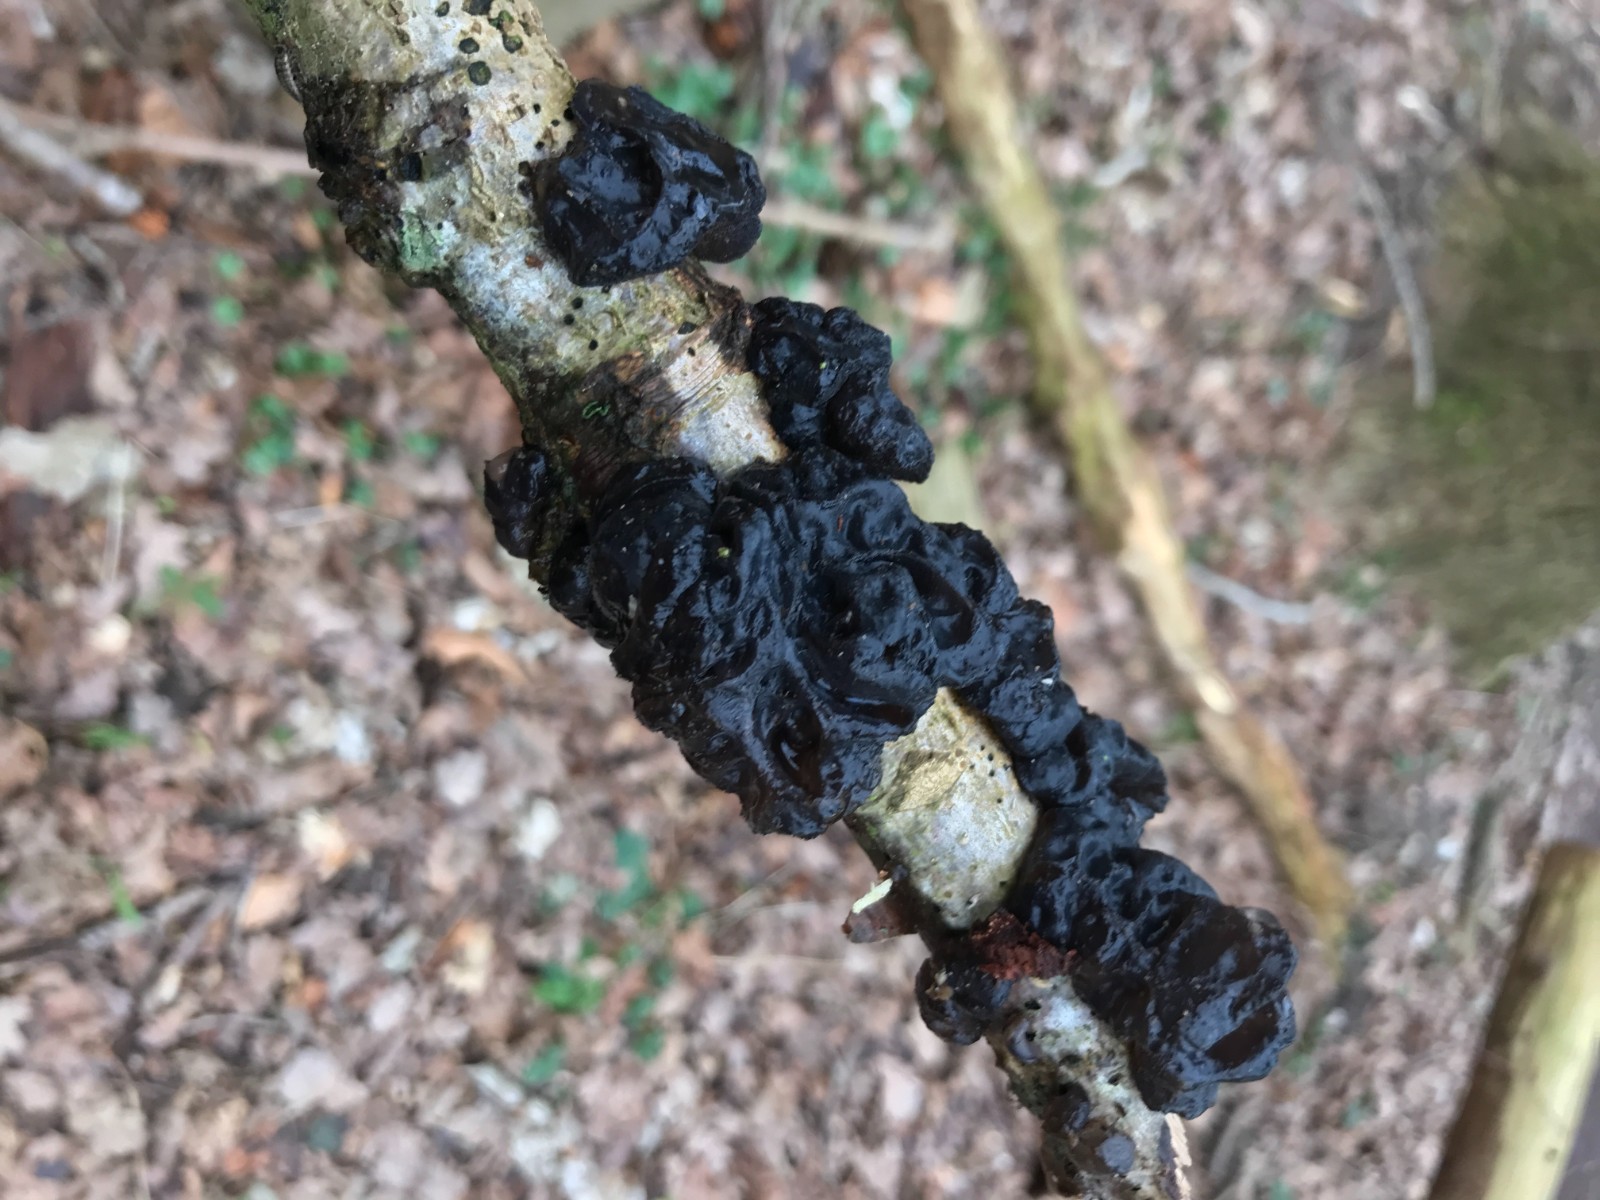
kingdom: Fungi
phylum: Basidiomycota
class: Agaricomycetes
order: Auriculariales
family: Auriculariaceae
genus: Exidia
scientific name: Exidia nigricans
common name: almindelig bævretop
